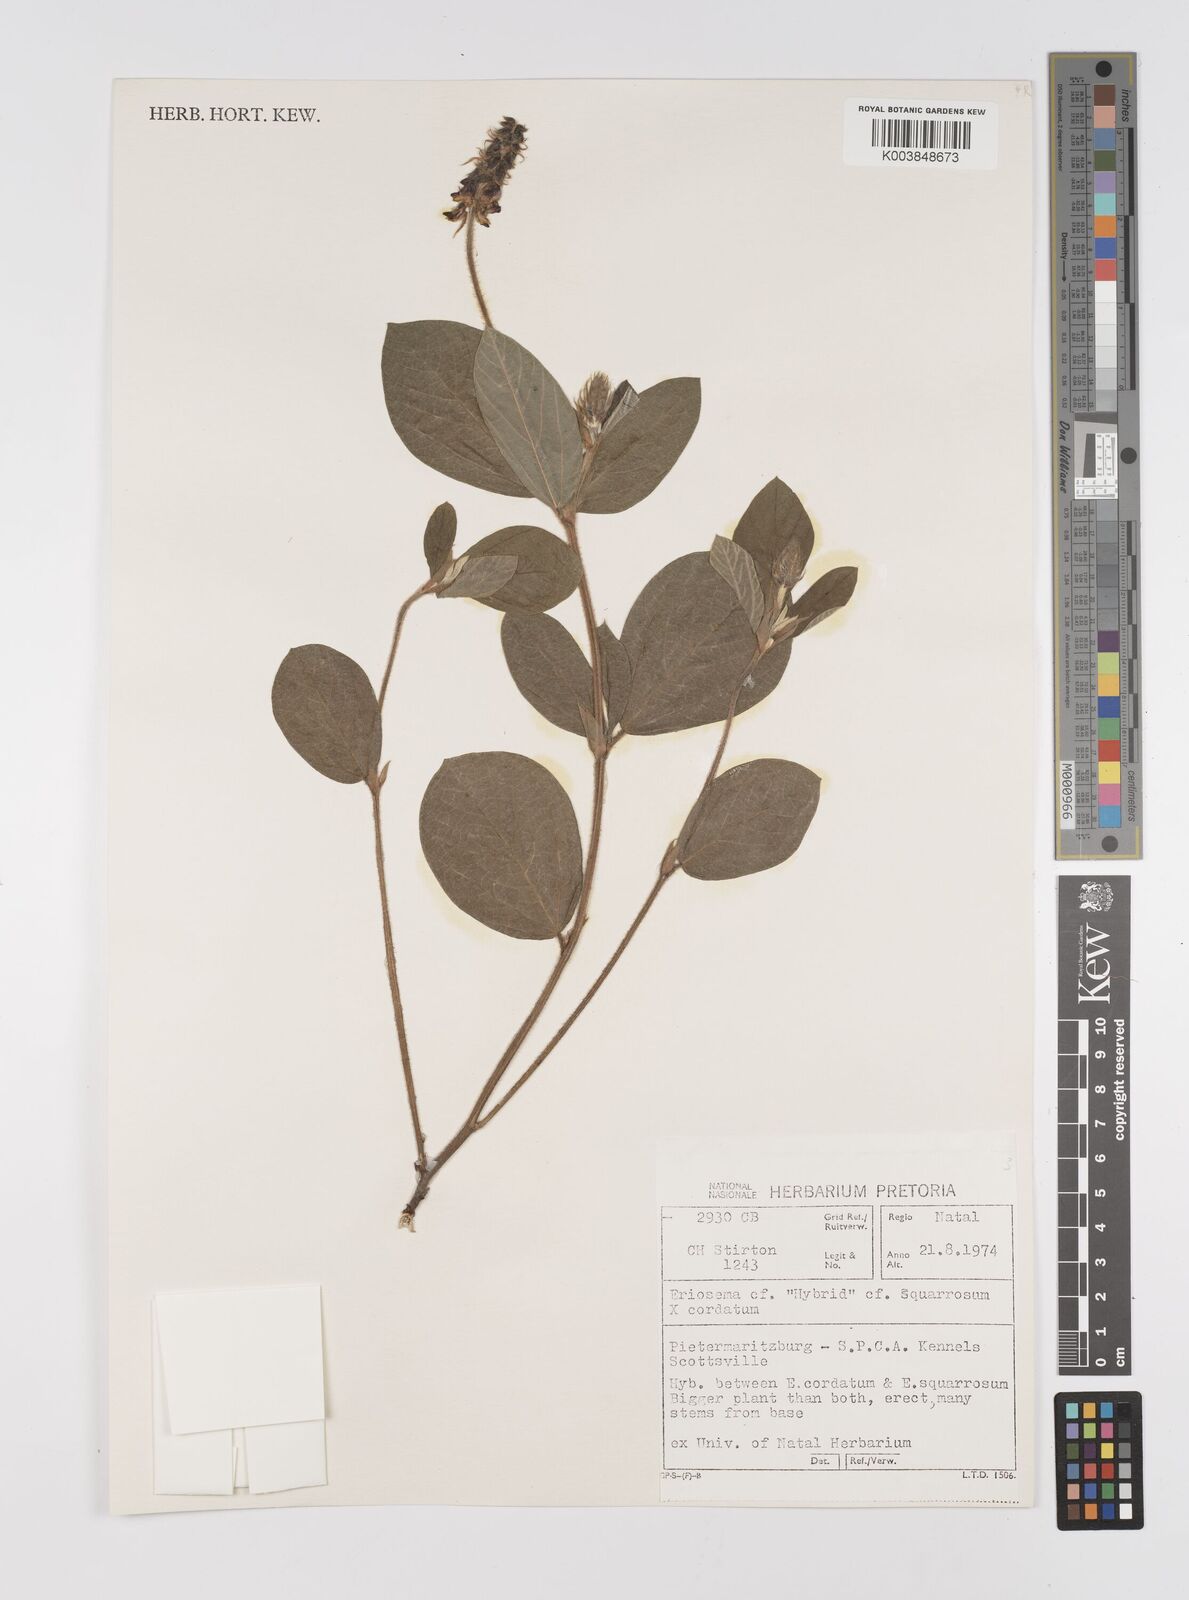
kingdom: Plantae
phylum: Tracheophyta
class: Magnoliopsida
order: Fabales
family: Fabaceae
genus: Eriosema
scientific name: Eriosema squarrosum
